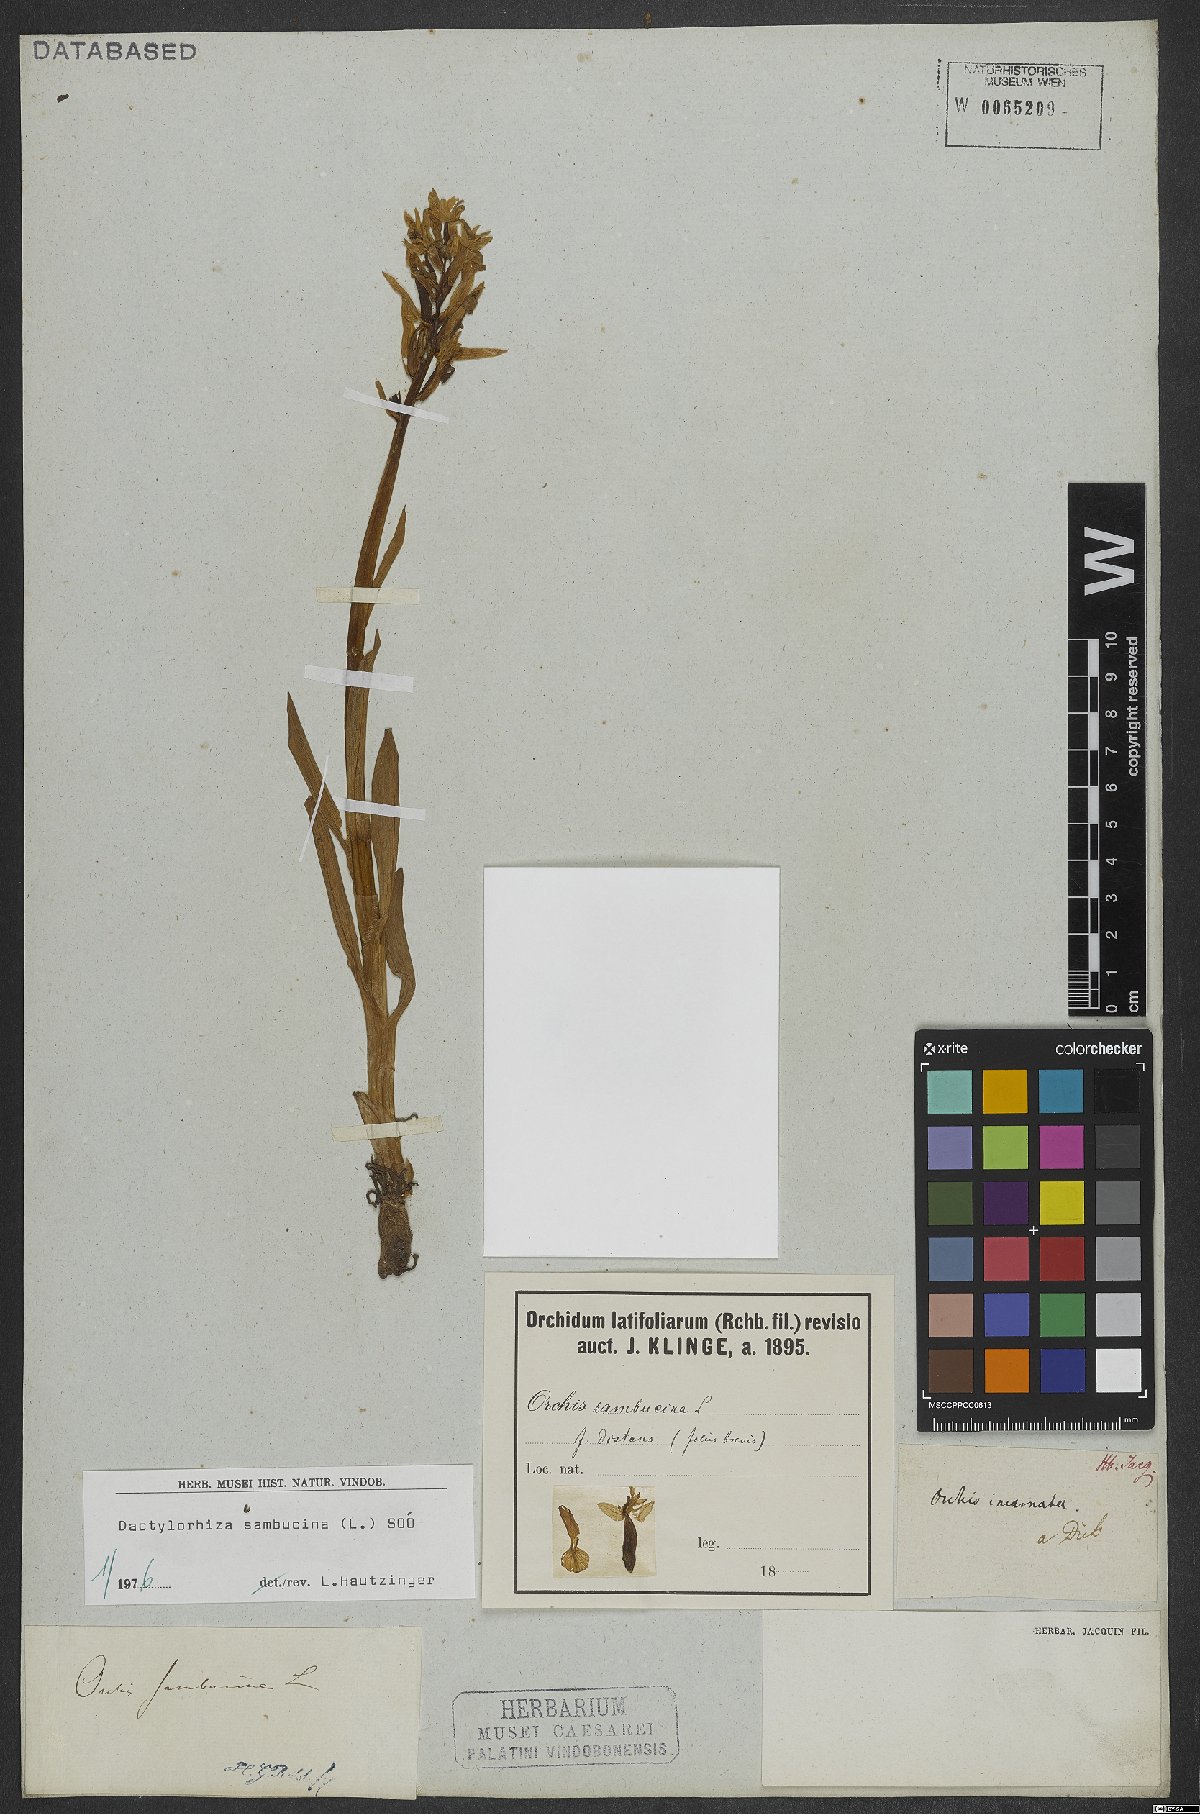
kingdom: Plantae
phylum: Tracheophyta
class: Liliopsida
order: Asparagales
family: Orchidaceae
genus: Dactylorhiza
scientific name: Dactylorhiza sambucina
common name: Elder-flowered orchid
